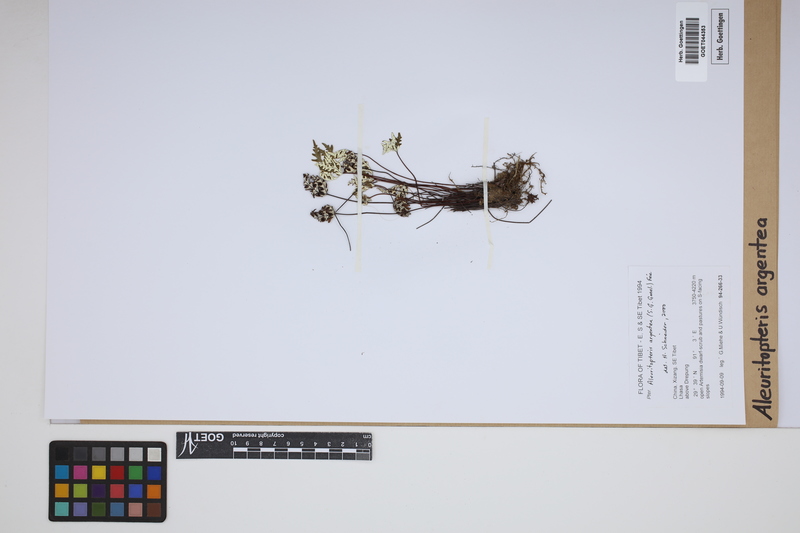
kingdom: Plantae
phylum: Tracheophyta
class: Polypodiopsida
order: Polypodiales
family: Pteridaceae
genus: Aleuritopteris
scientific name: Aleuritopteris argentea
